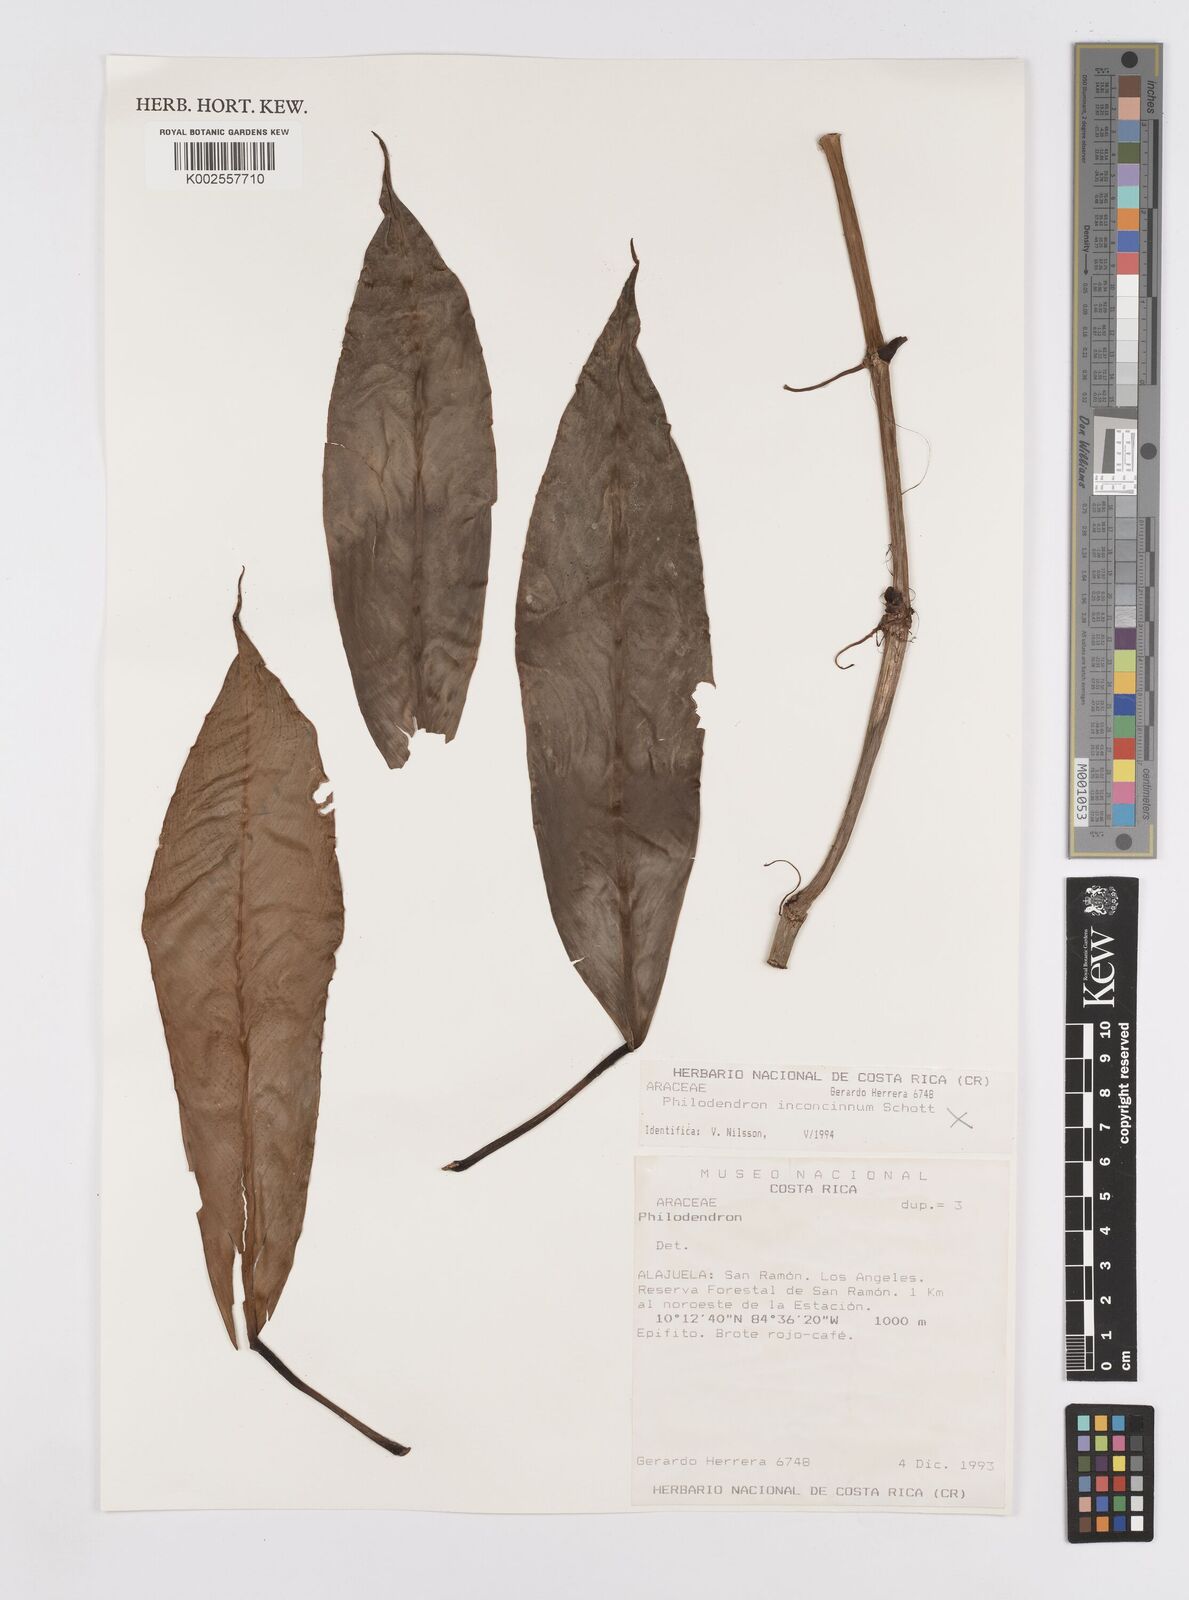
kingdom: Plantae
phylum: Tracheophyta
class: Liliopsida
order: Alismatales
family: Araceae
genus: Philodendron
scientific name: Philodendron
